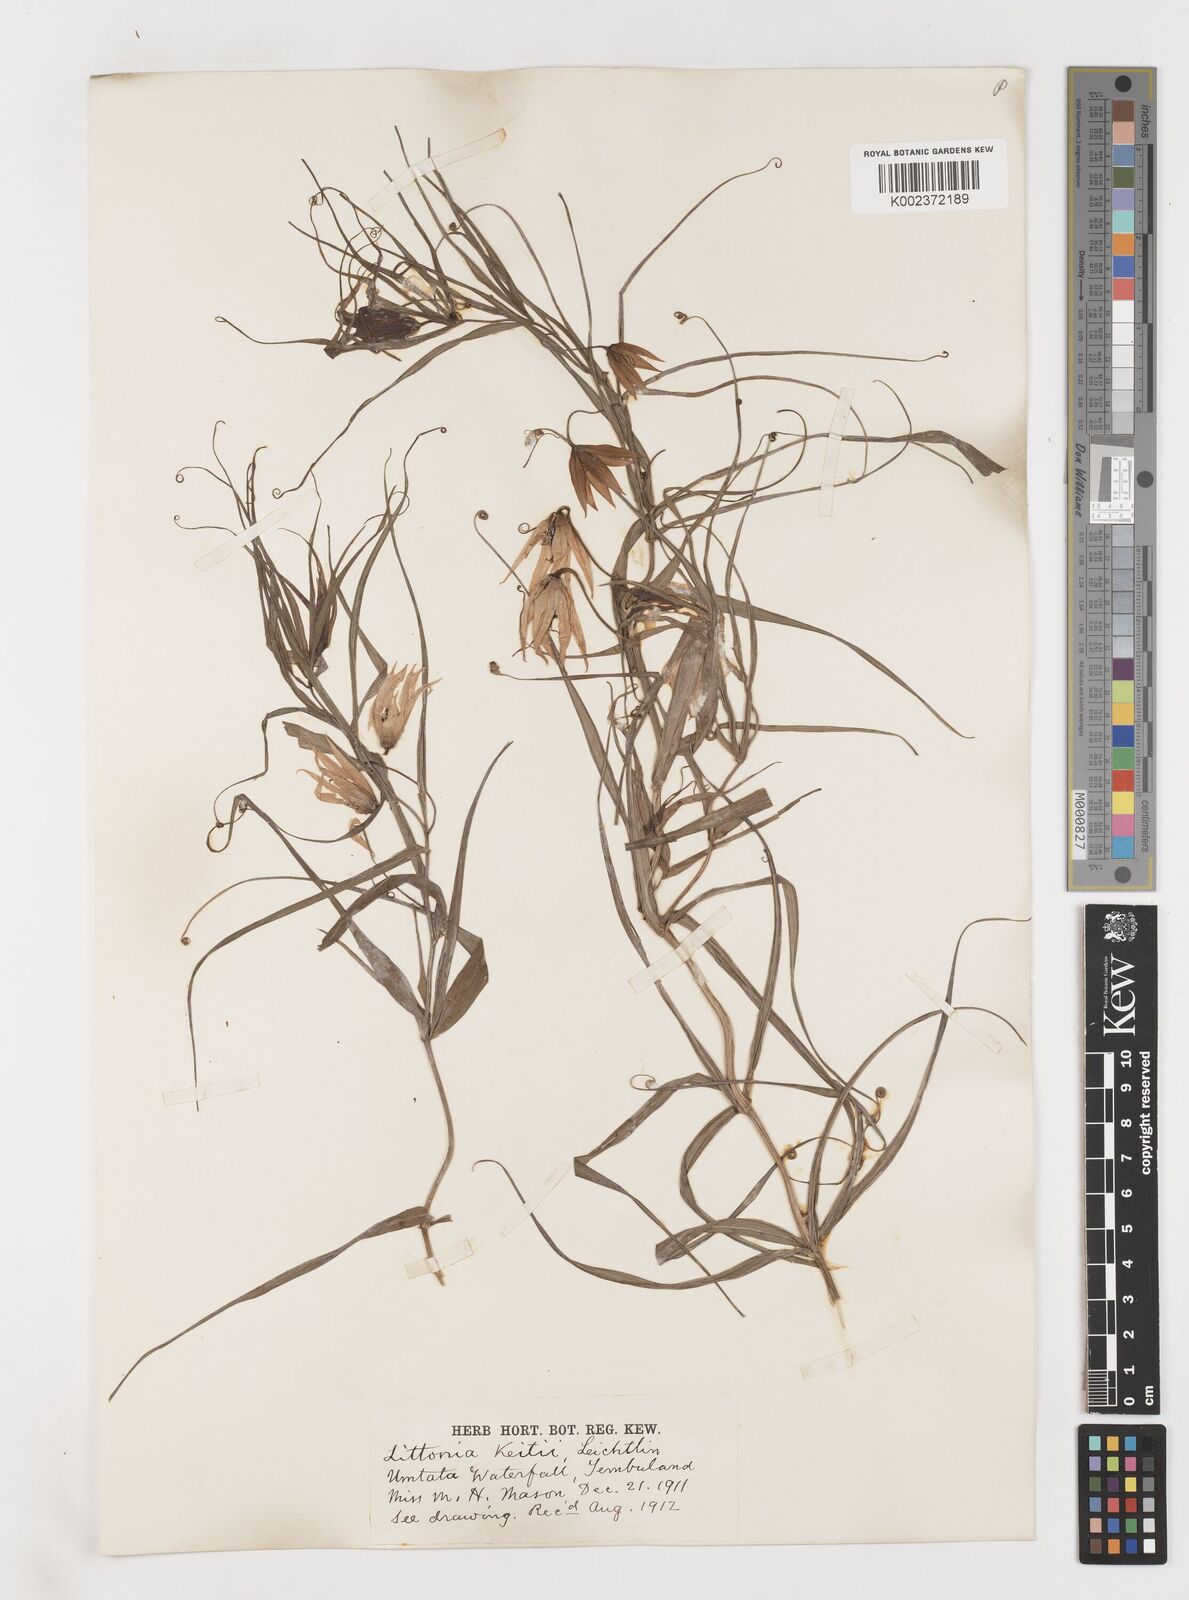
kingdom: Plantae
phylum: Tracheophyta
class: Liliopsida
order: Liliales
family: Colchicaceae
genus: Gloriosa
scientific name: Gloriosa modesta
